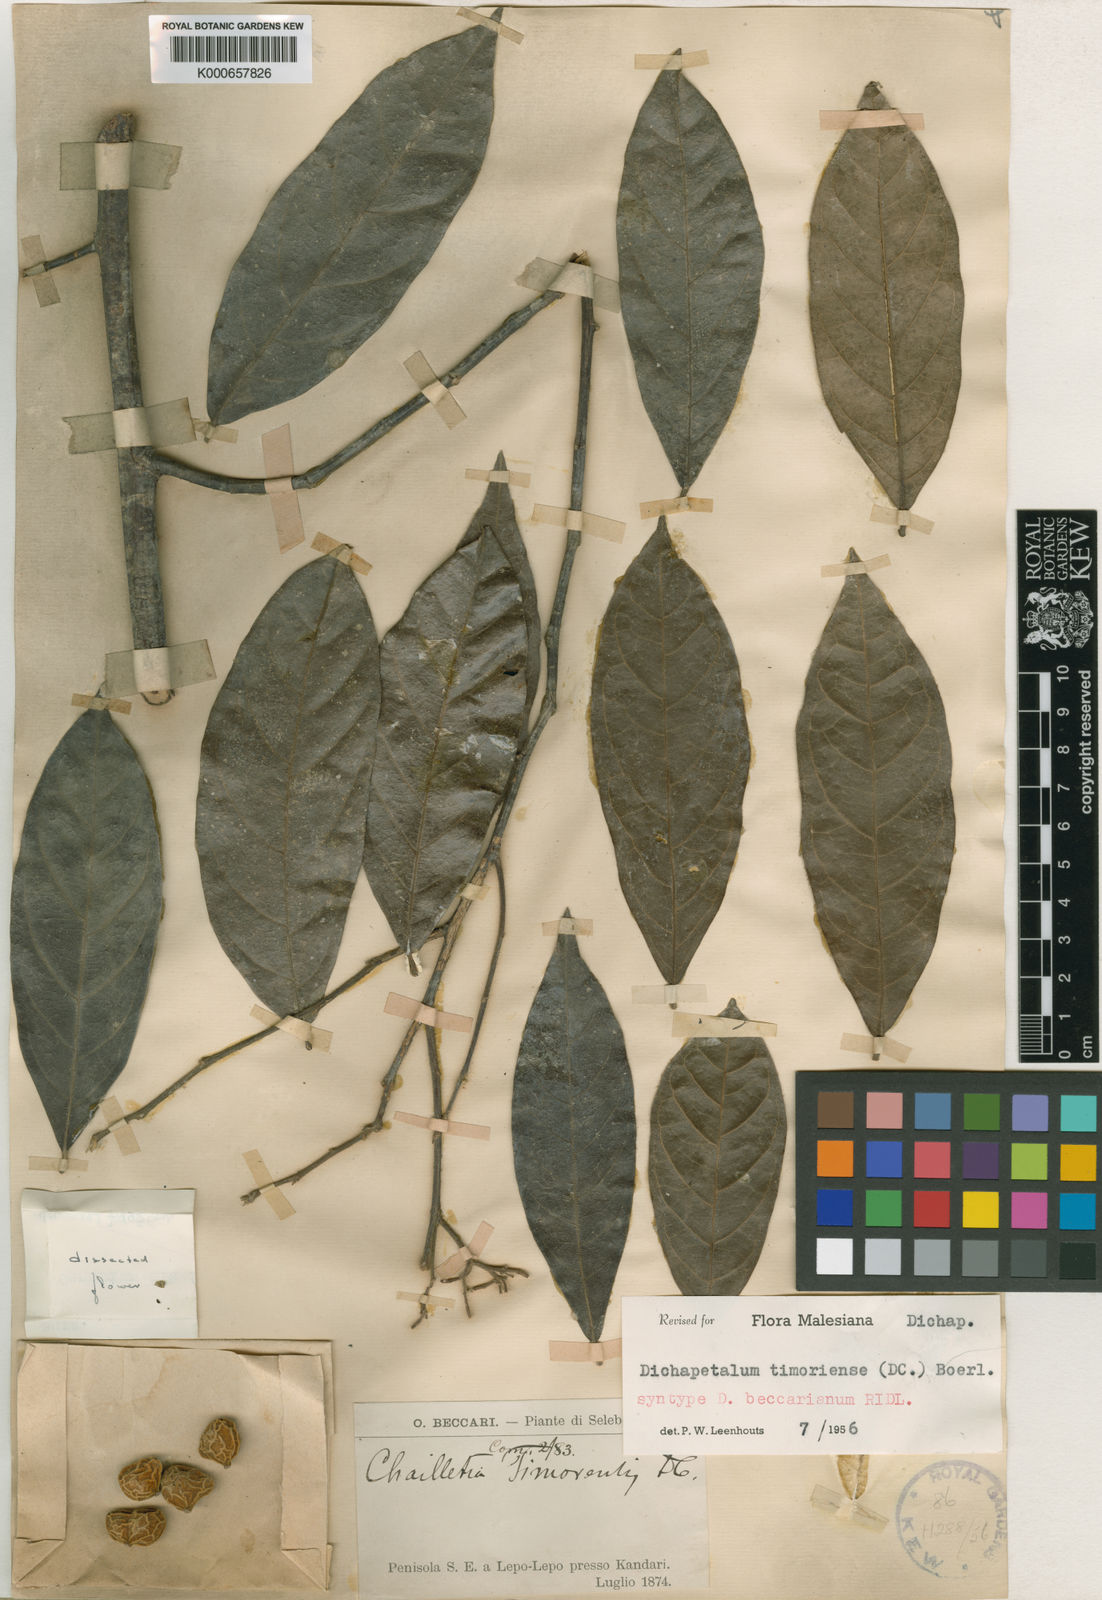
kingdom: Plantae
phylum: Tracheophyta
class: Magnoliopsida
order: Malpighiales
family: Dichapetalaceae
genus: Dichapetalum
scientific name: Dichapetalum timoriense
